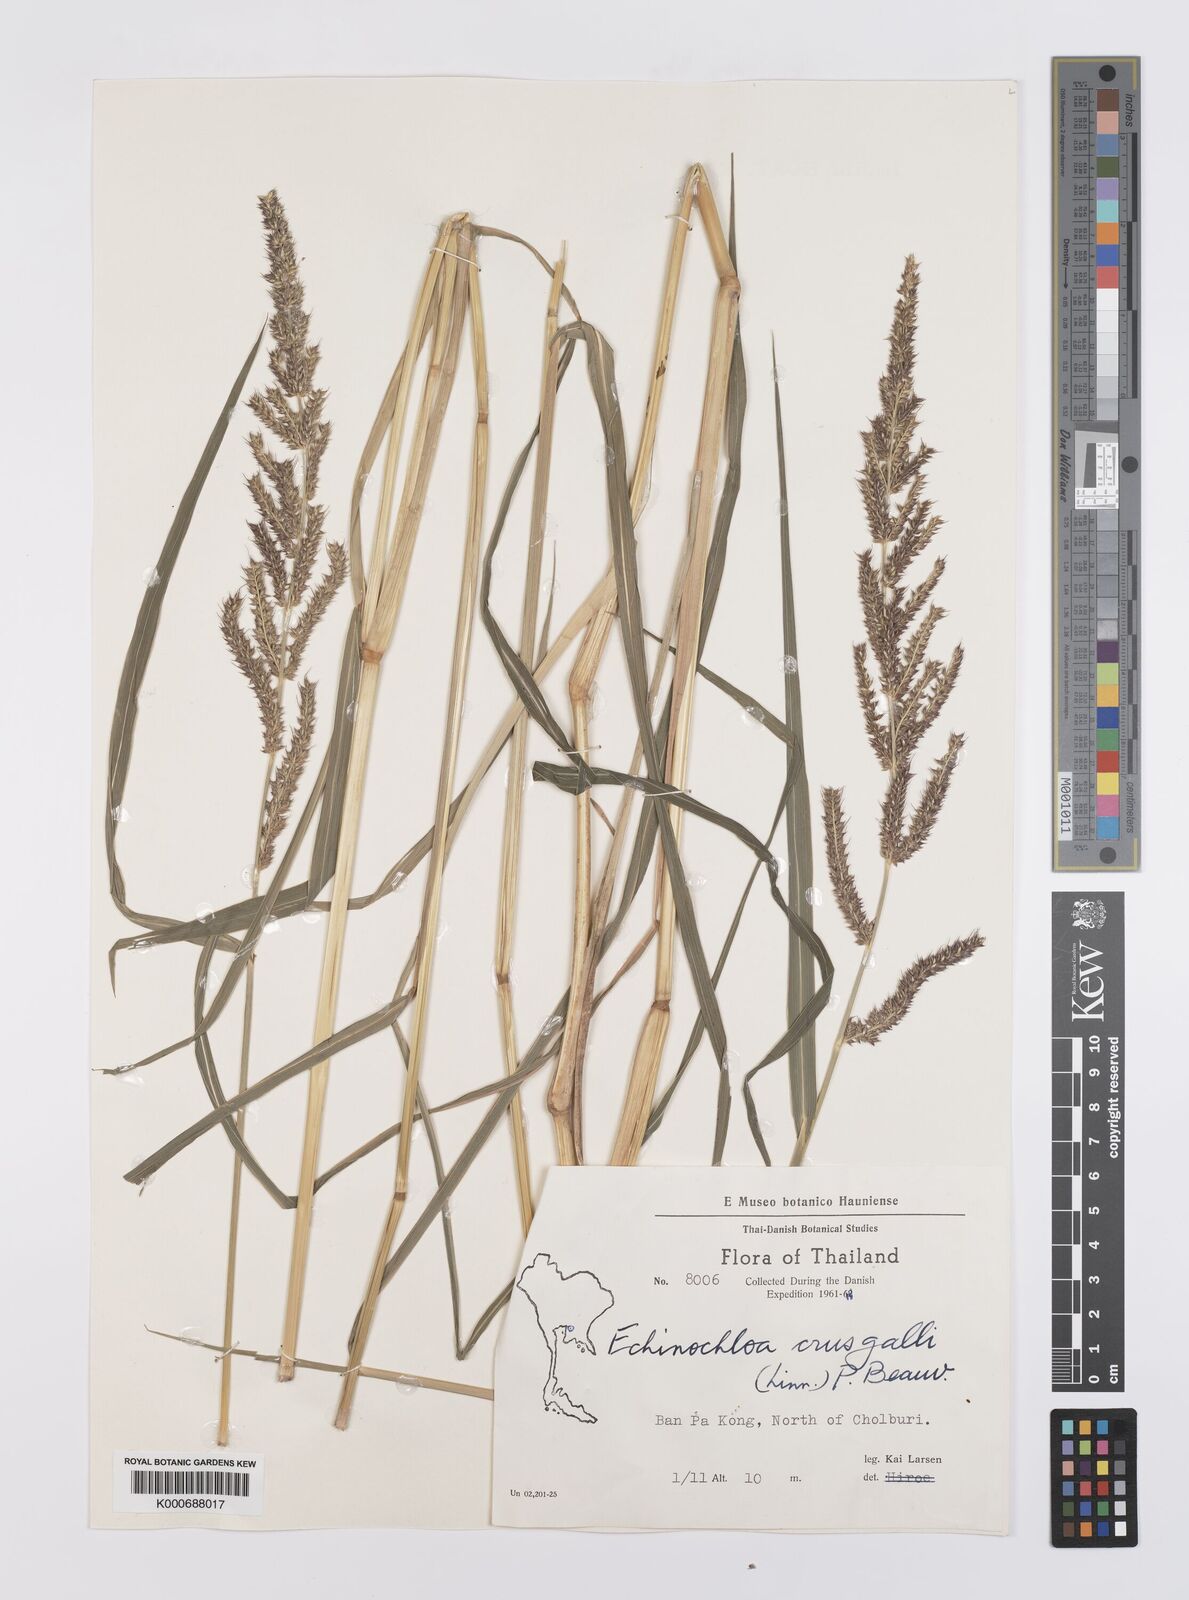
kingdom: Plantae
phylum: Tracheophyta
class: Liliopsida
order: Poales
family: Poaceae
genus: Echinochloa
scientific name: Echinochloa crus-galli
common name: Cockspur
